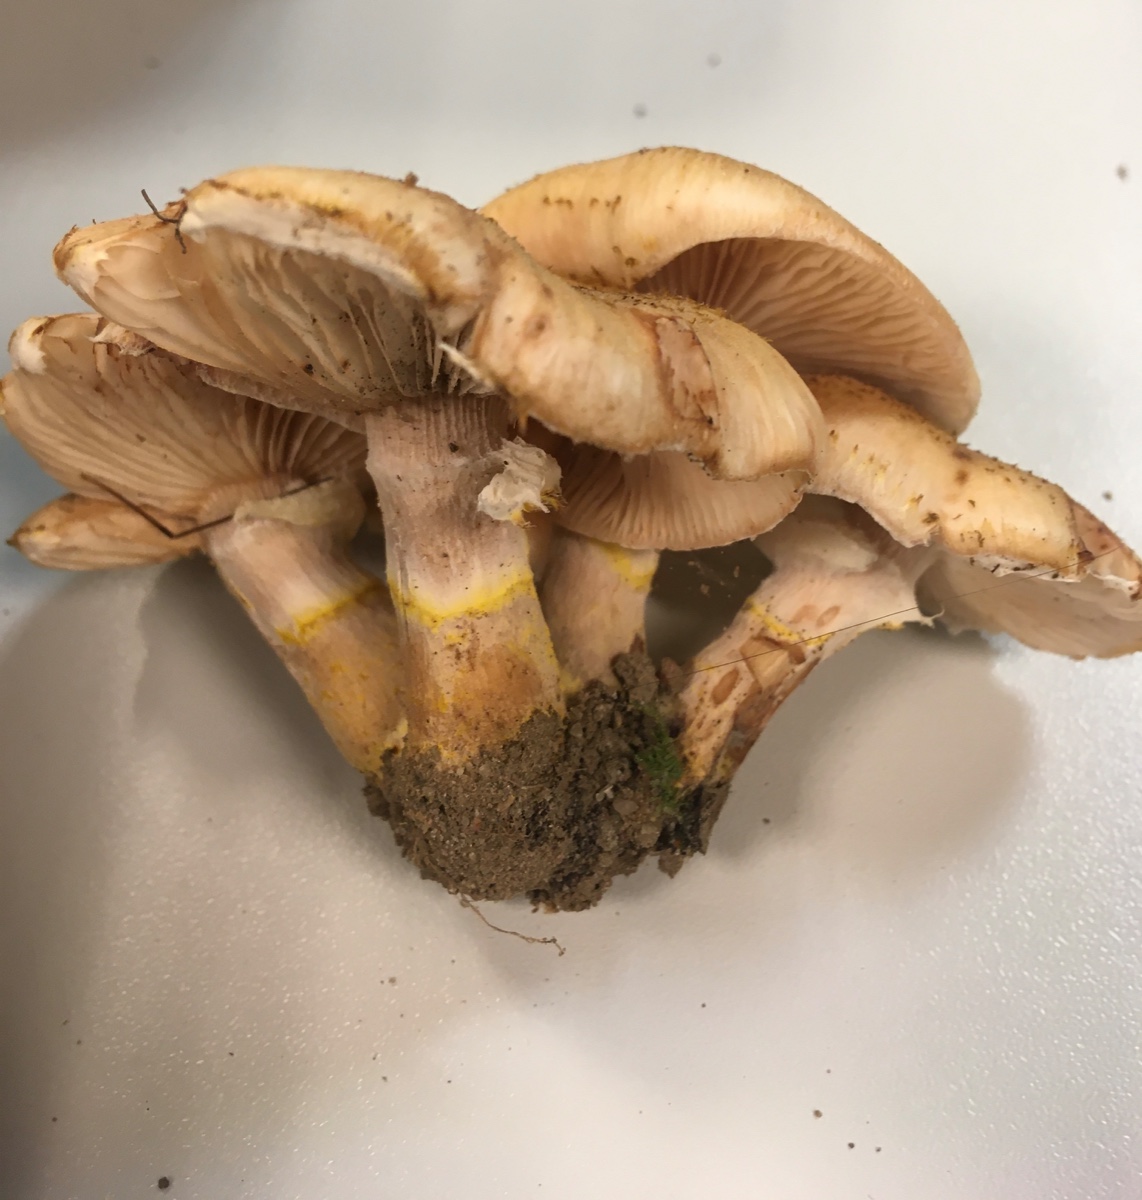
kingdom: Fungi
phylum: Basidiomycota
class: Agaricomycetes
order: Agaricales
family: Physalacriaceae
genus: Armillaria
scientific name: Armillaria lutea
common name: køllestokket honningsvamp
